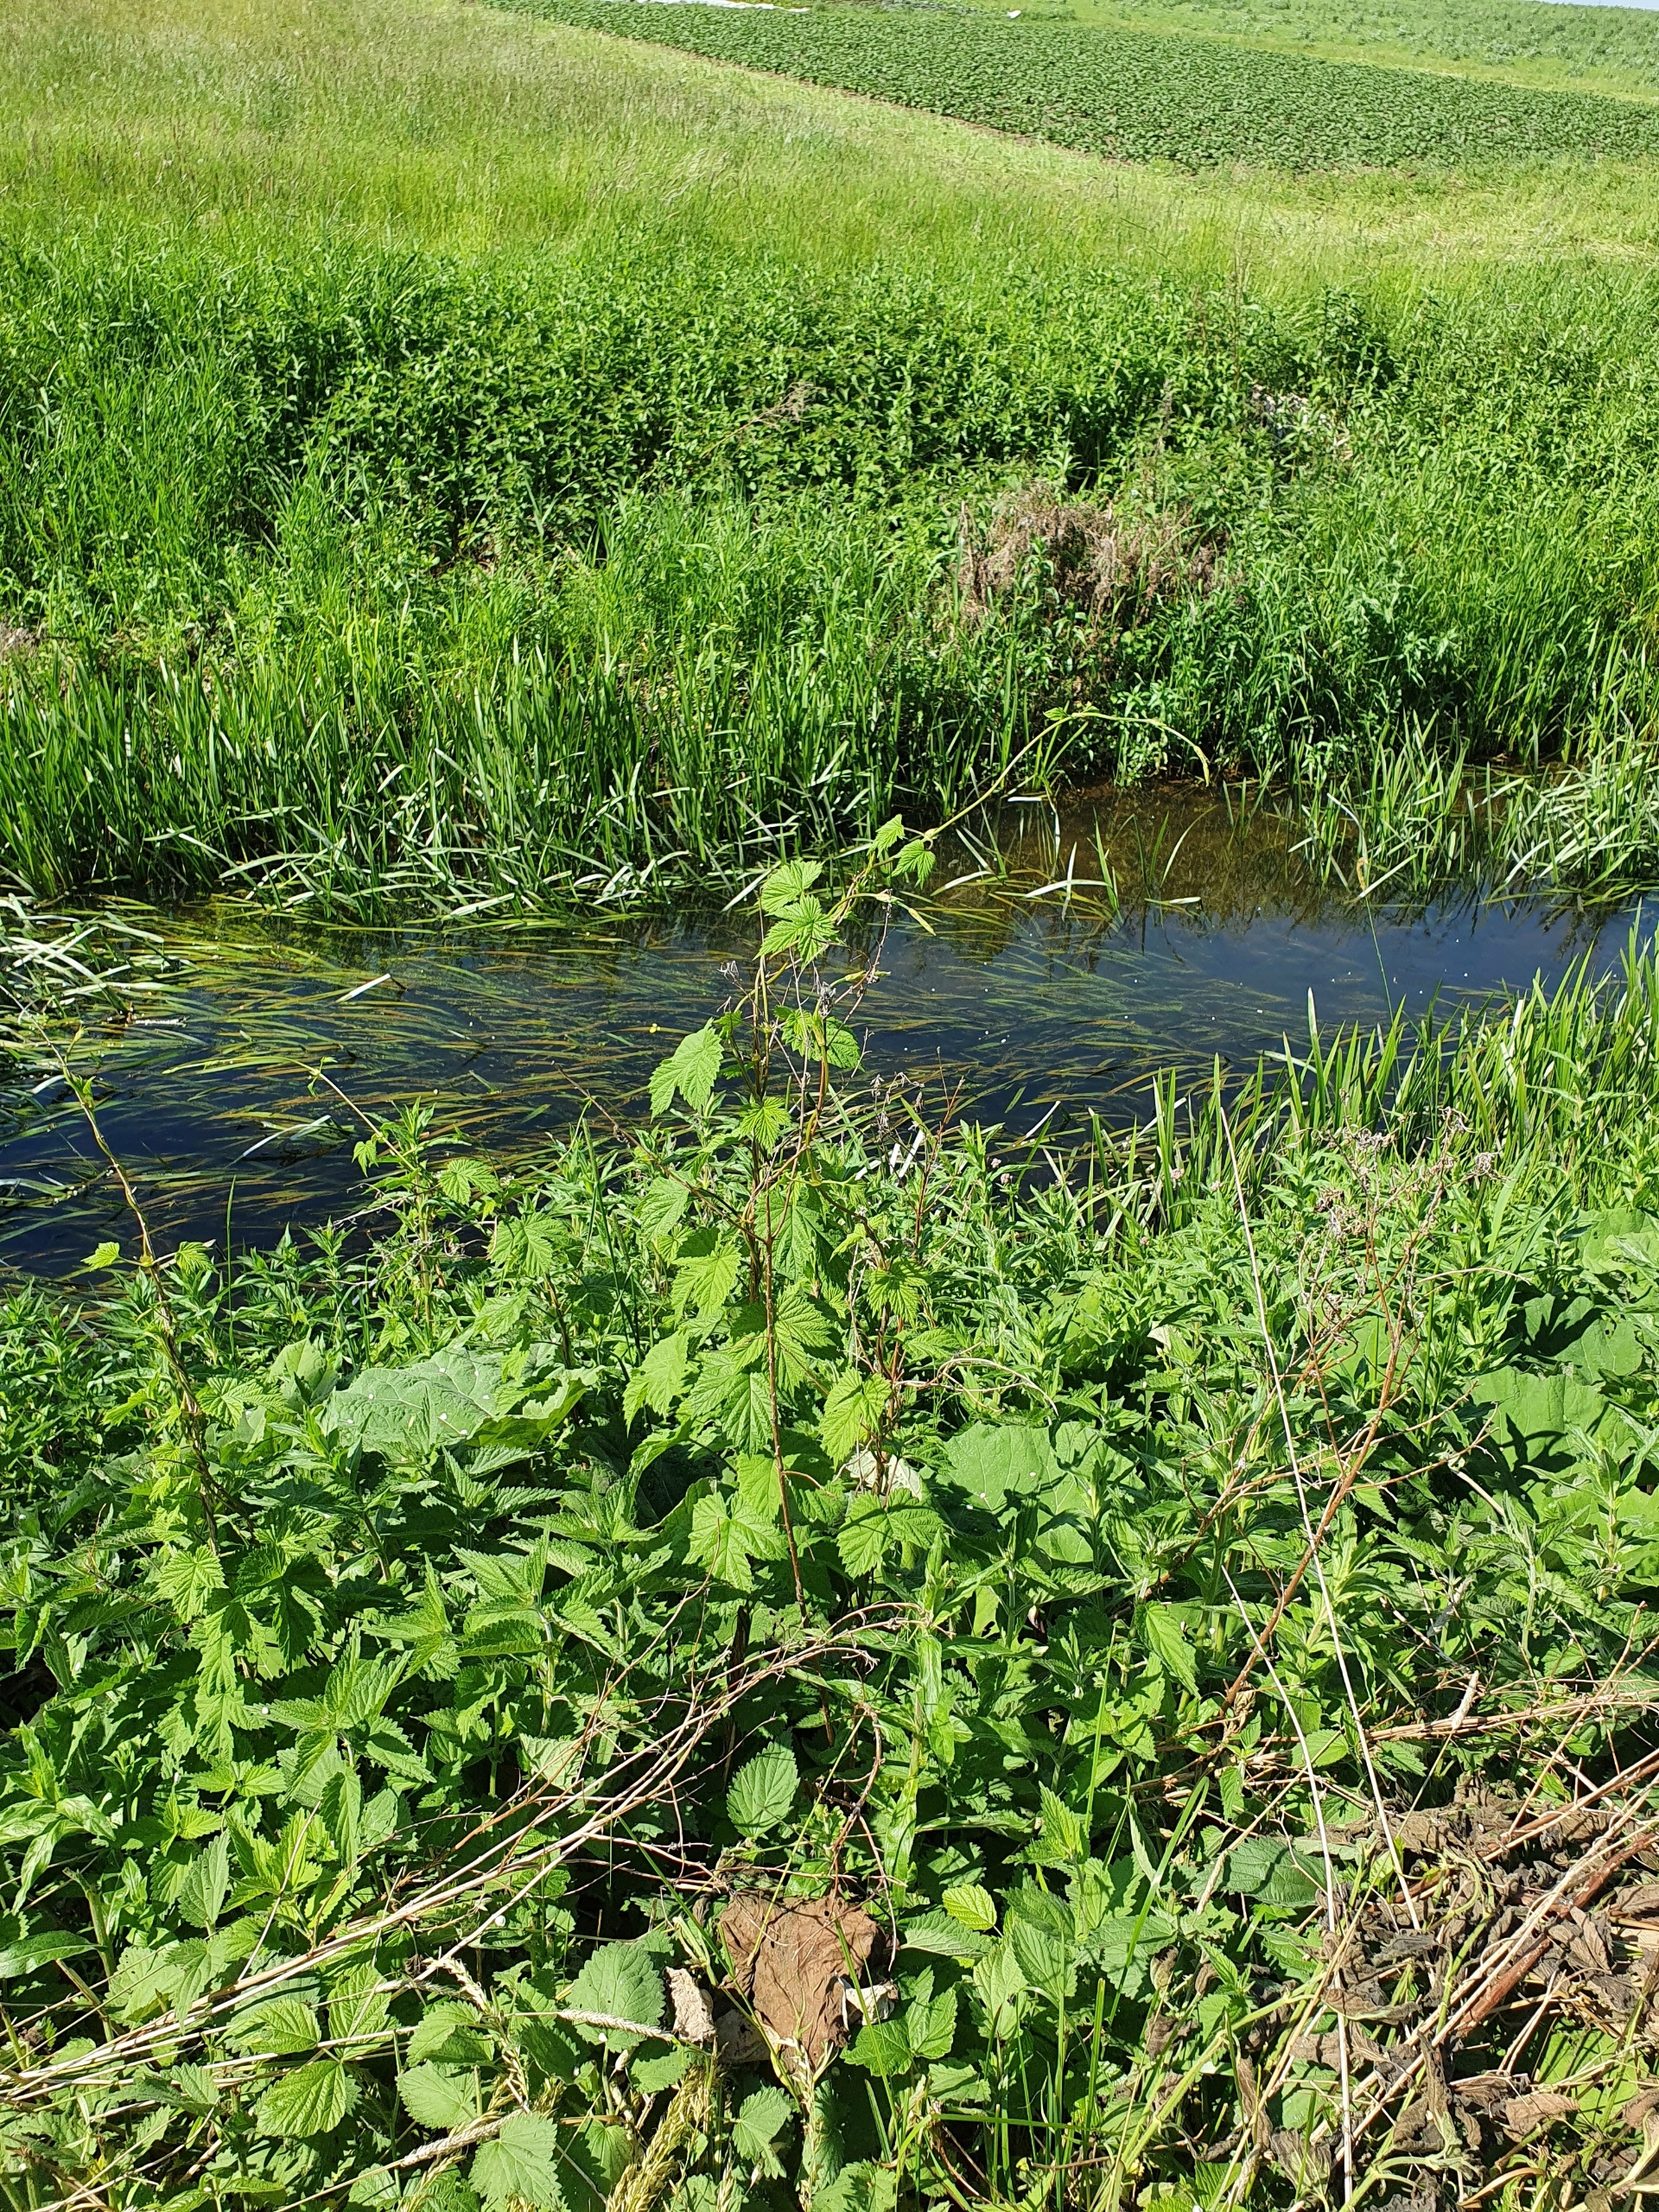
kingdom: Plantae
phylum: Tracheophyta
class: Magnoliopsida
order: Rosales
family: Cannabaceae
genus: Humulus
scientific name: Humulus lupulus
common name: Humle
